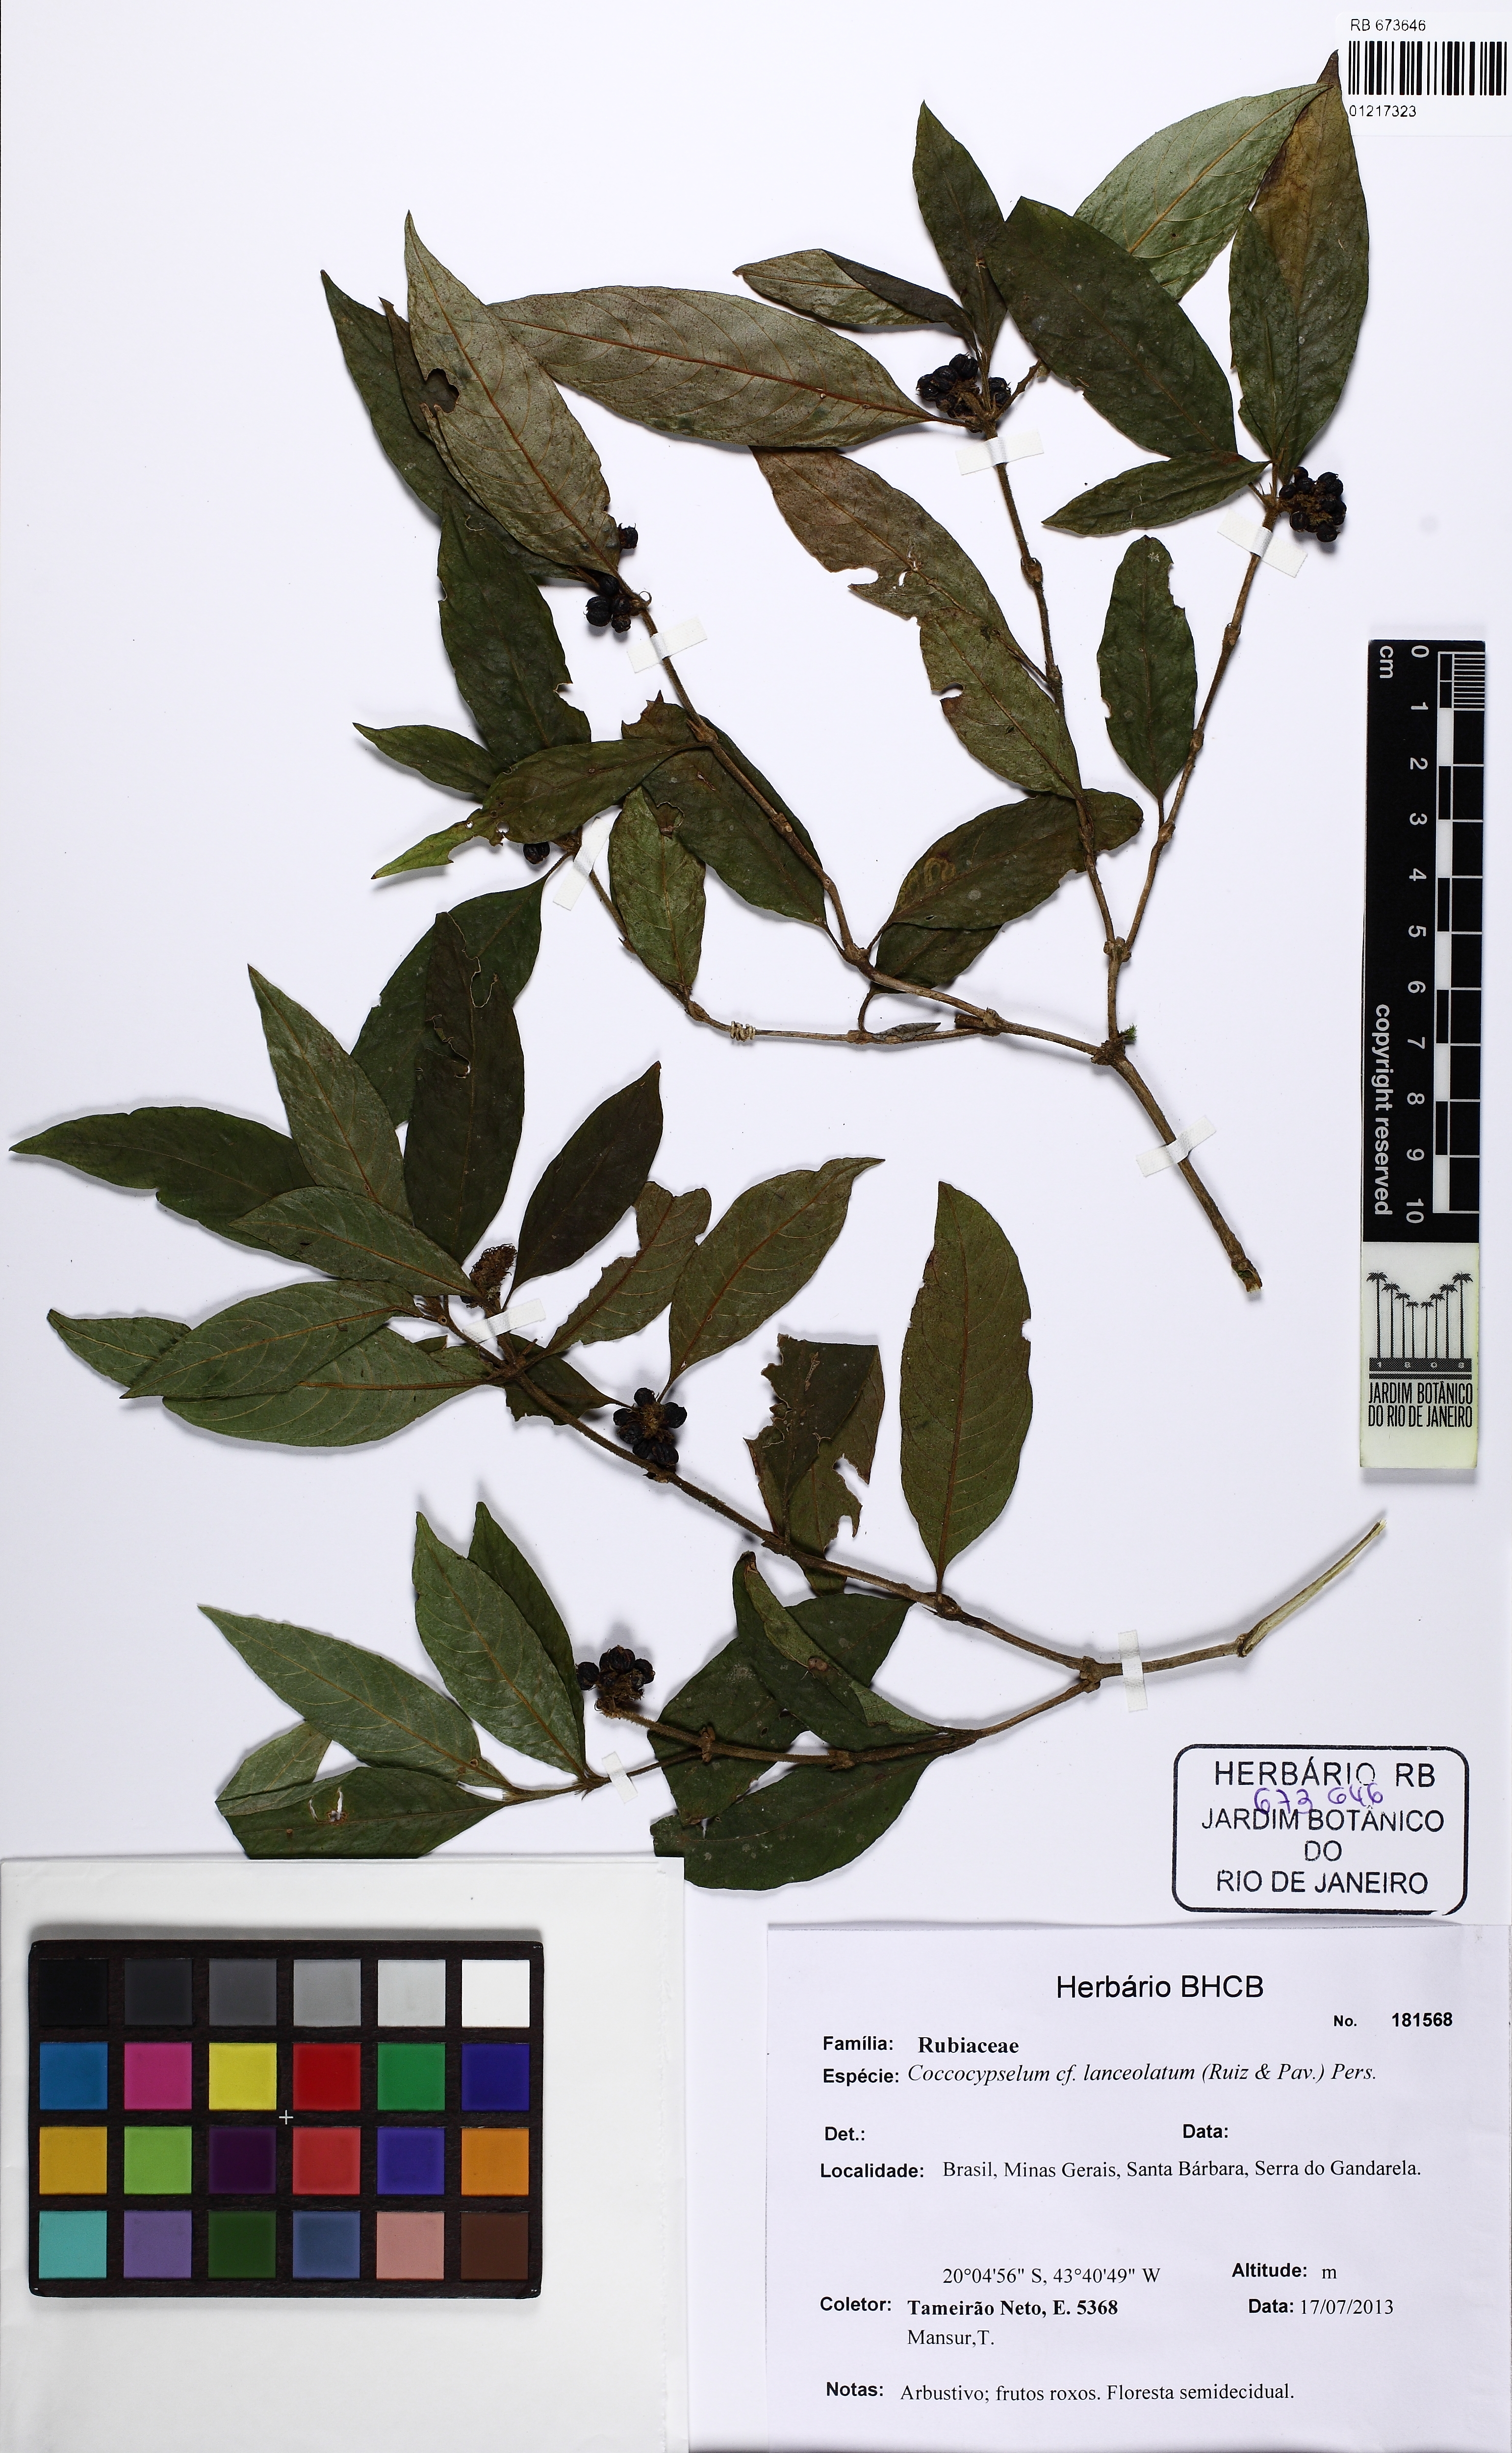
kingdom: Plantae
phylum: Tracheophyta
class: Magnoliopsida
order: Gentianales
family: Rubiaceae
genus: Coccocypselum
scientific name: Coccocypselum lanceolatum
